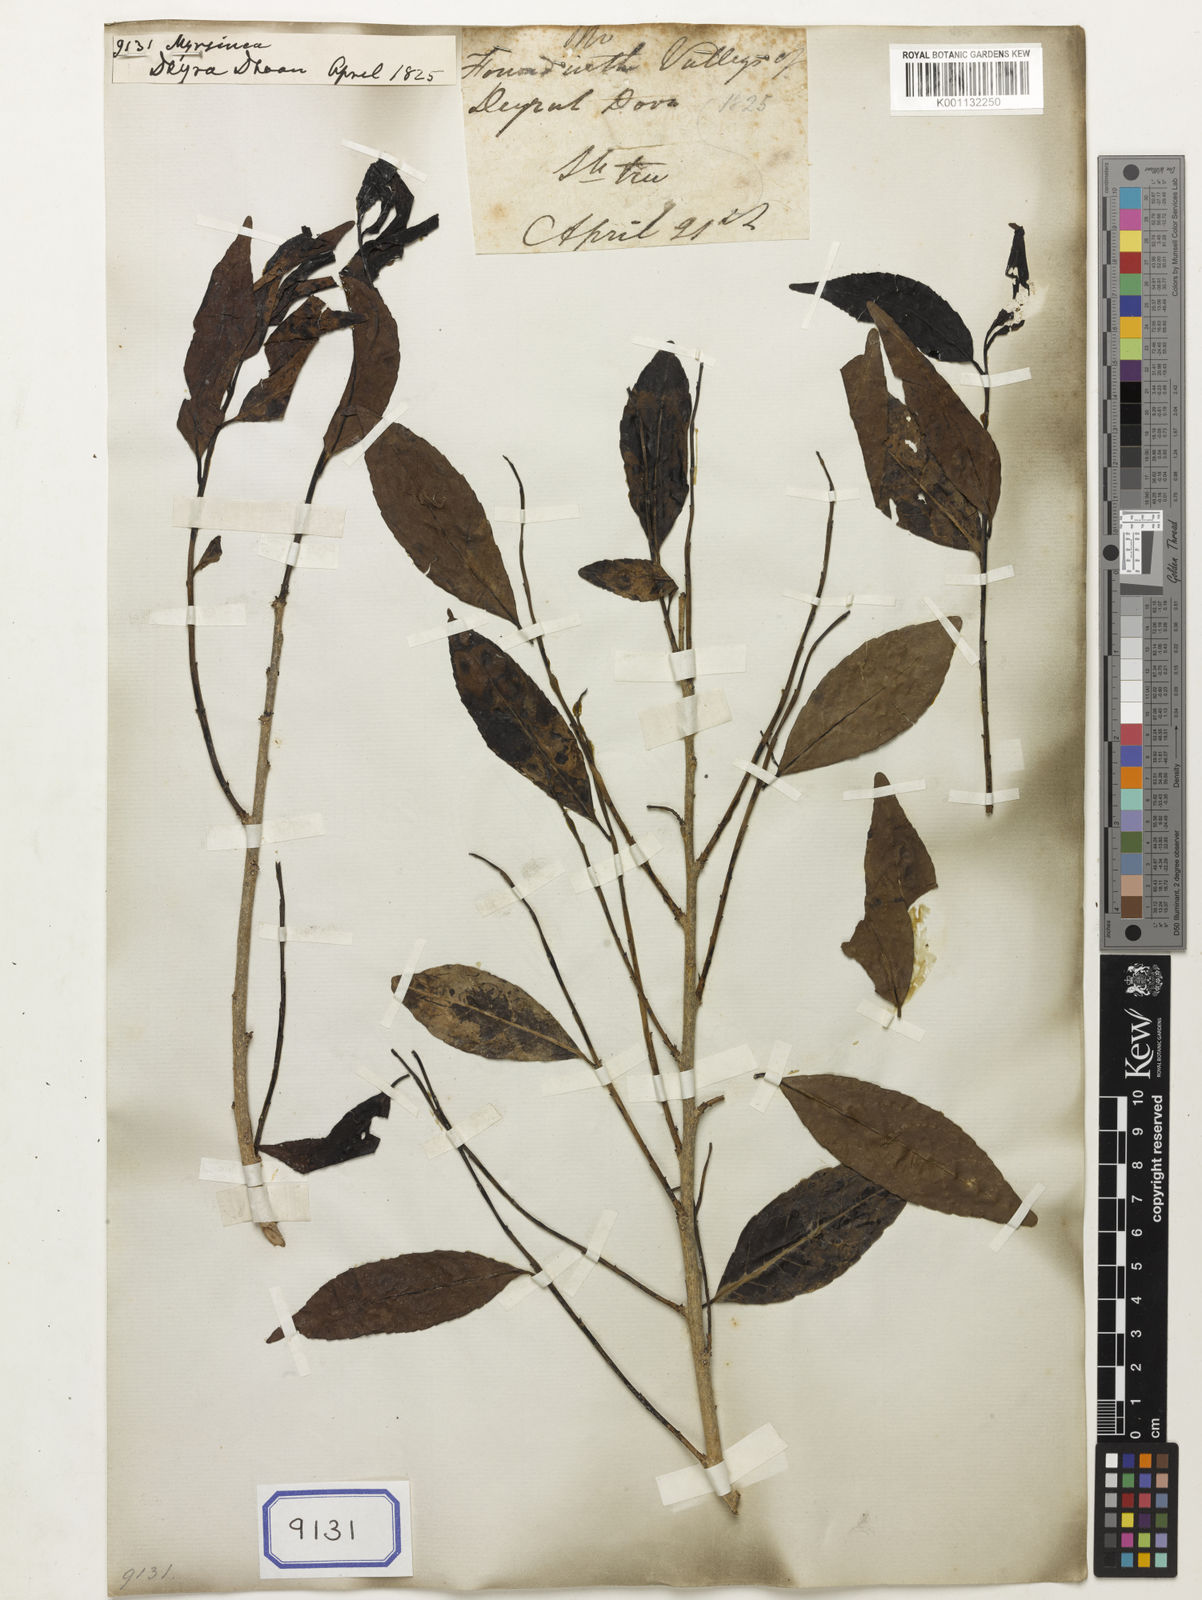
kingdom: Plantae
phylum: Tracheophyta
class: Magnoliopsida
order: Ericales
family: Primulaceae
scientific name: Primulaceae
